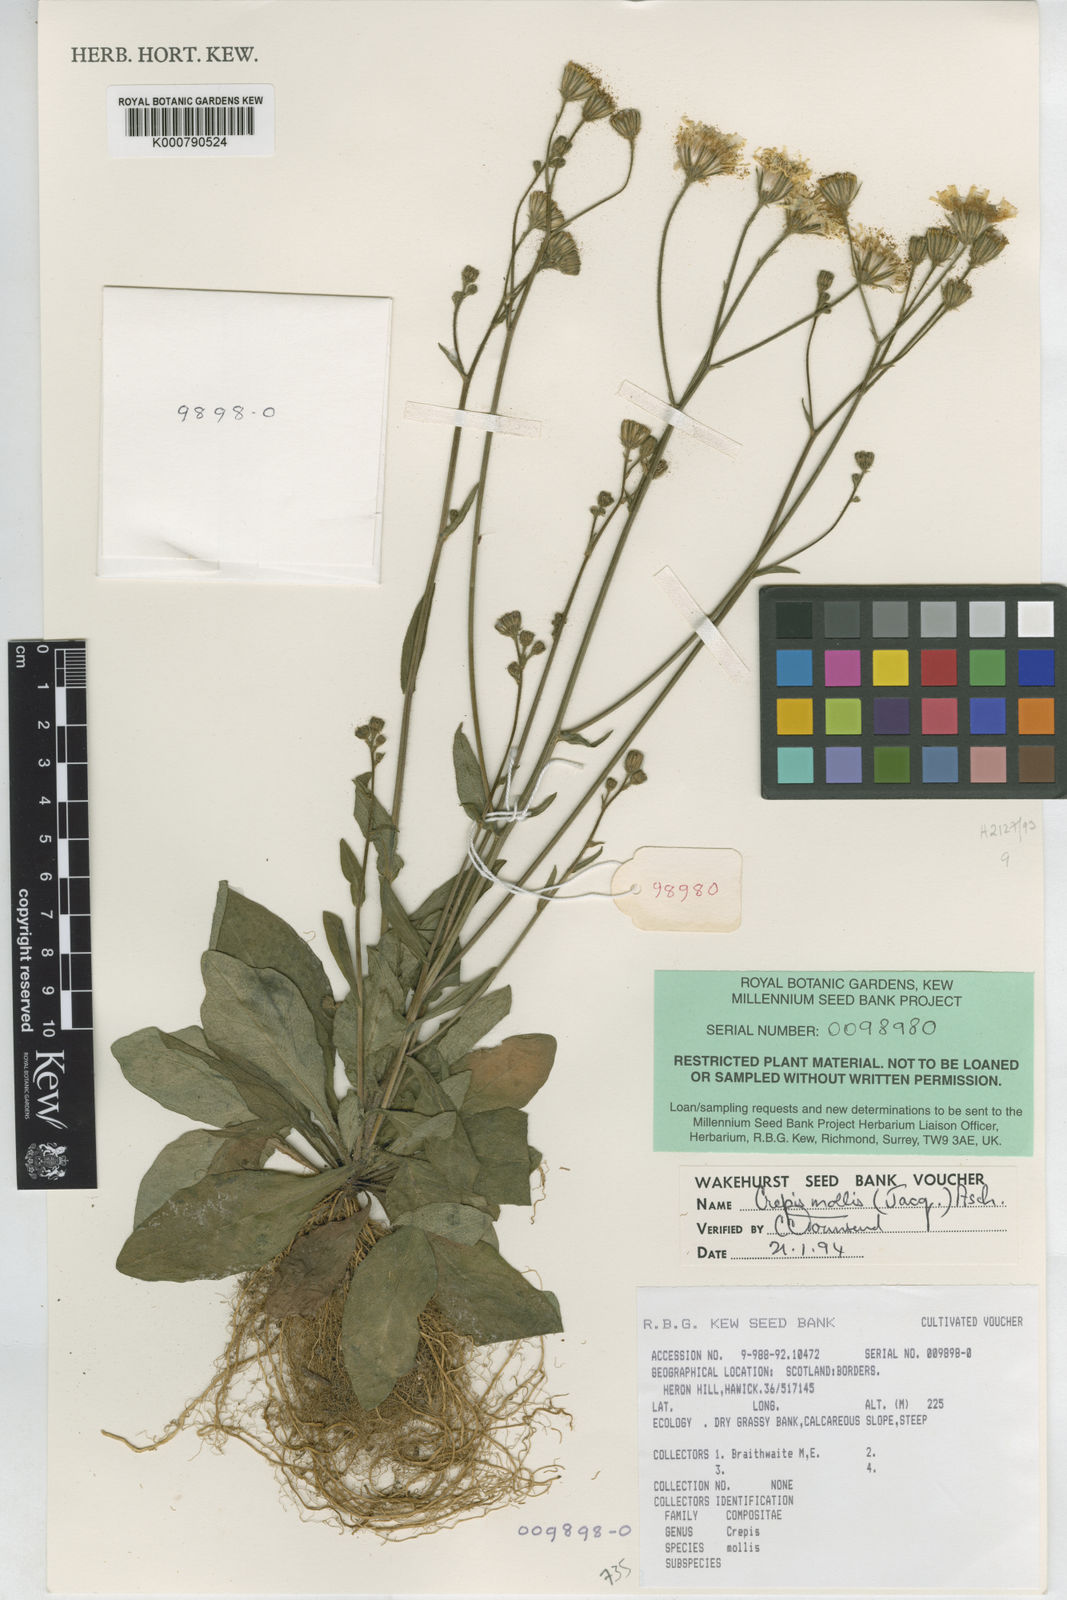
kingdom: Plantae
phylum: Tracheophyta
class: Magnoliopsida
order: Asterales
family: Asteraceae
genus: Crepis
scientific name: Crepis mollis
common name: Northern hawk's-beard
